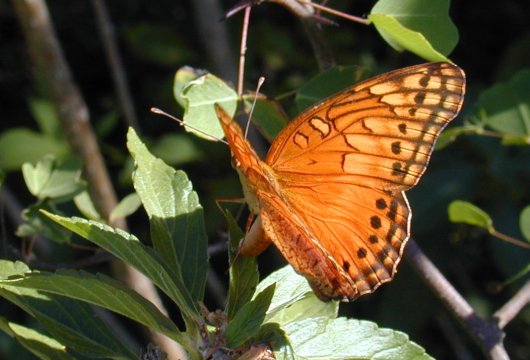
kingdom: Animalia
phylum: Arthropoda
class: Insecta
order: Lepidoptera
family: Nymphalidae
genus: Euptoieta
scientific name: Euptoieta hegesia
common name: Mexican Fritillary
